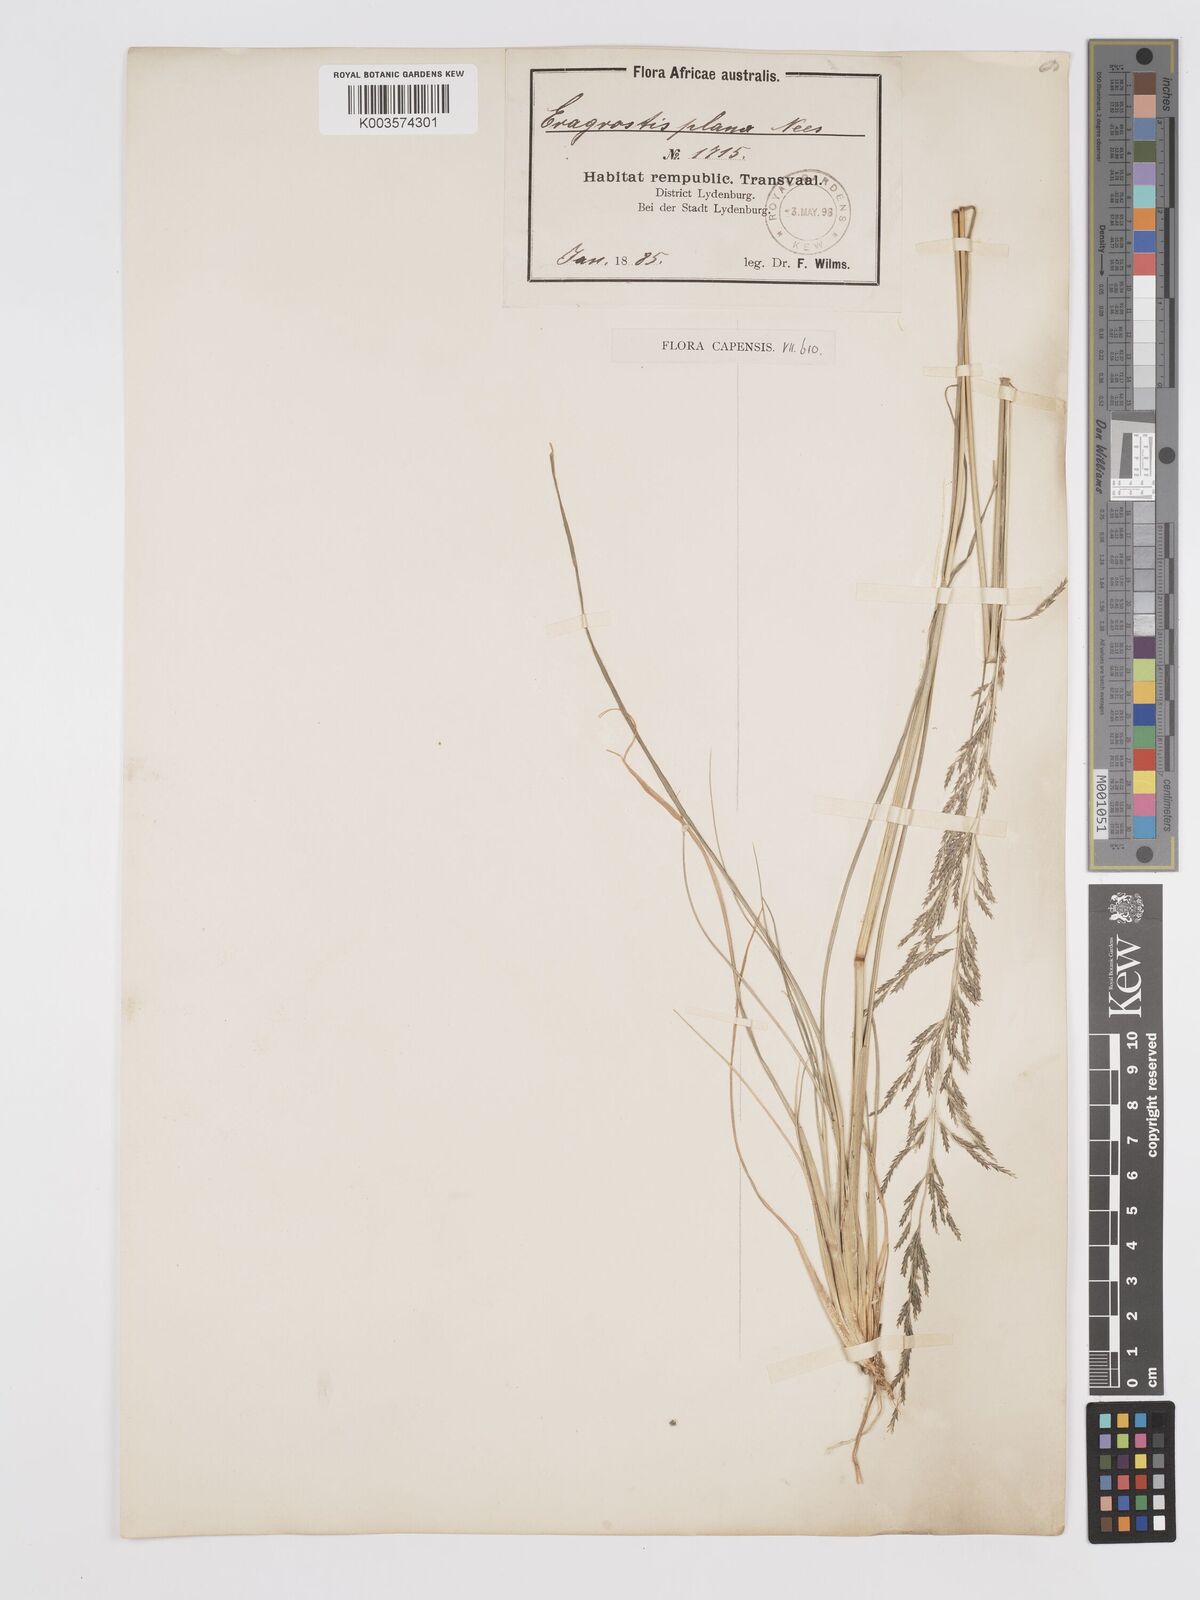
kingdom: Plantae
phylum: Tracheophyta
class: Liliopsida
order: Poales
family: Poaceae
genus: Eragrostis
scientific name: Eragrostis plana
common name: South african lovegrass
